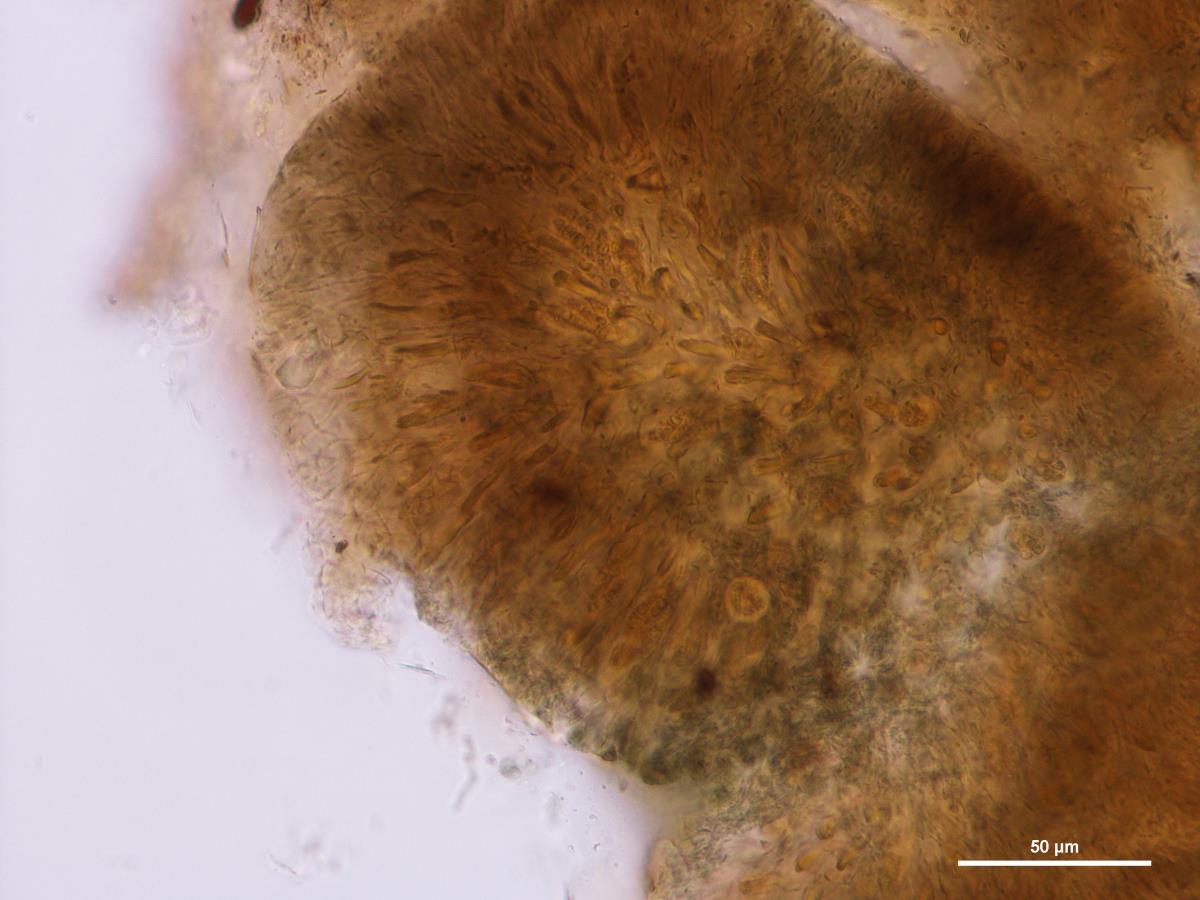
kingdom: Fungi
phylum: Ascomycota
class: Pezizomycetes
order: Pezizales
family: Sarcosomataceae
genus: Strumella
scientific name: Strumella hysterioidea
